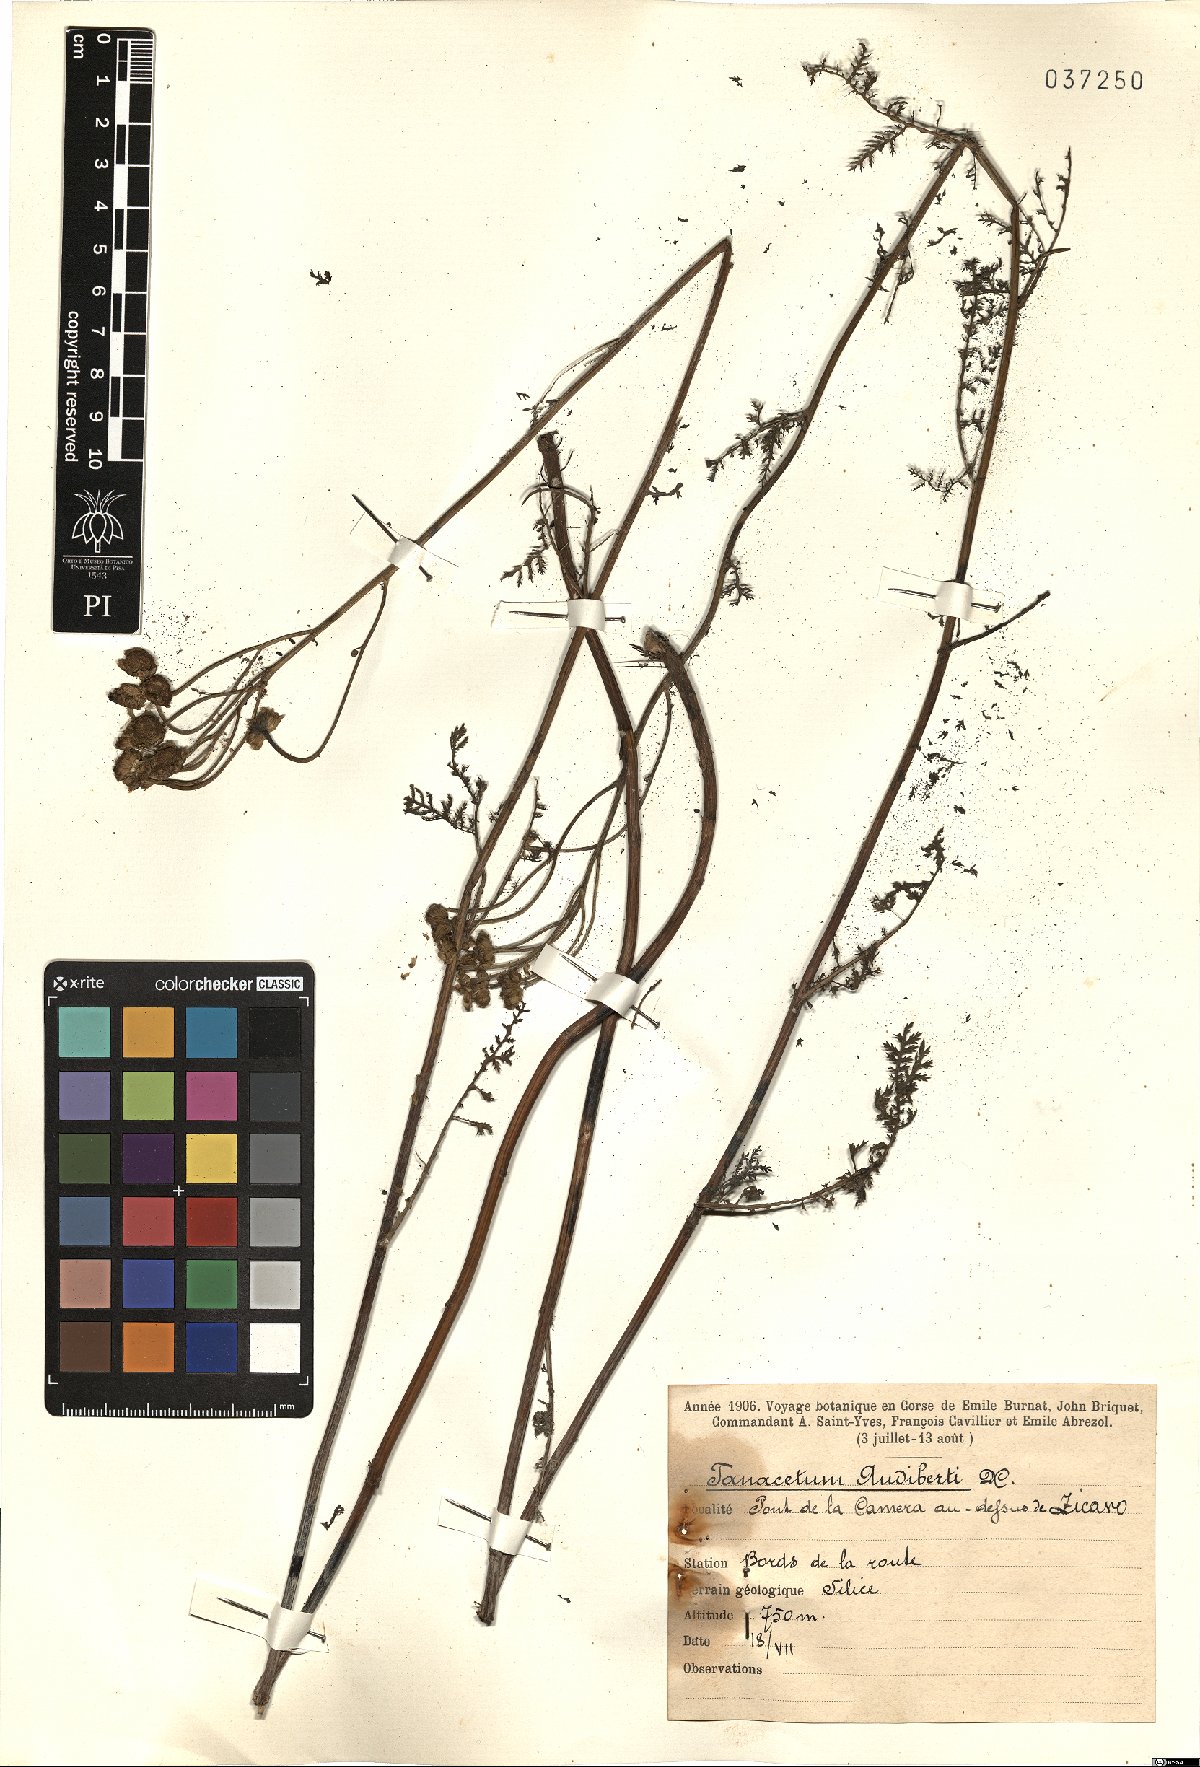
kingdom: Plantae
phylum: Tracheophyta
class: Magnoliopsida
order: Asterales
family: Asteraceae
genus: Tanacetum
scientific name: Tanacetum audibertii
